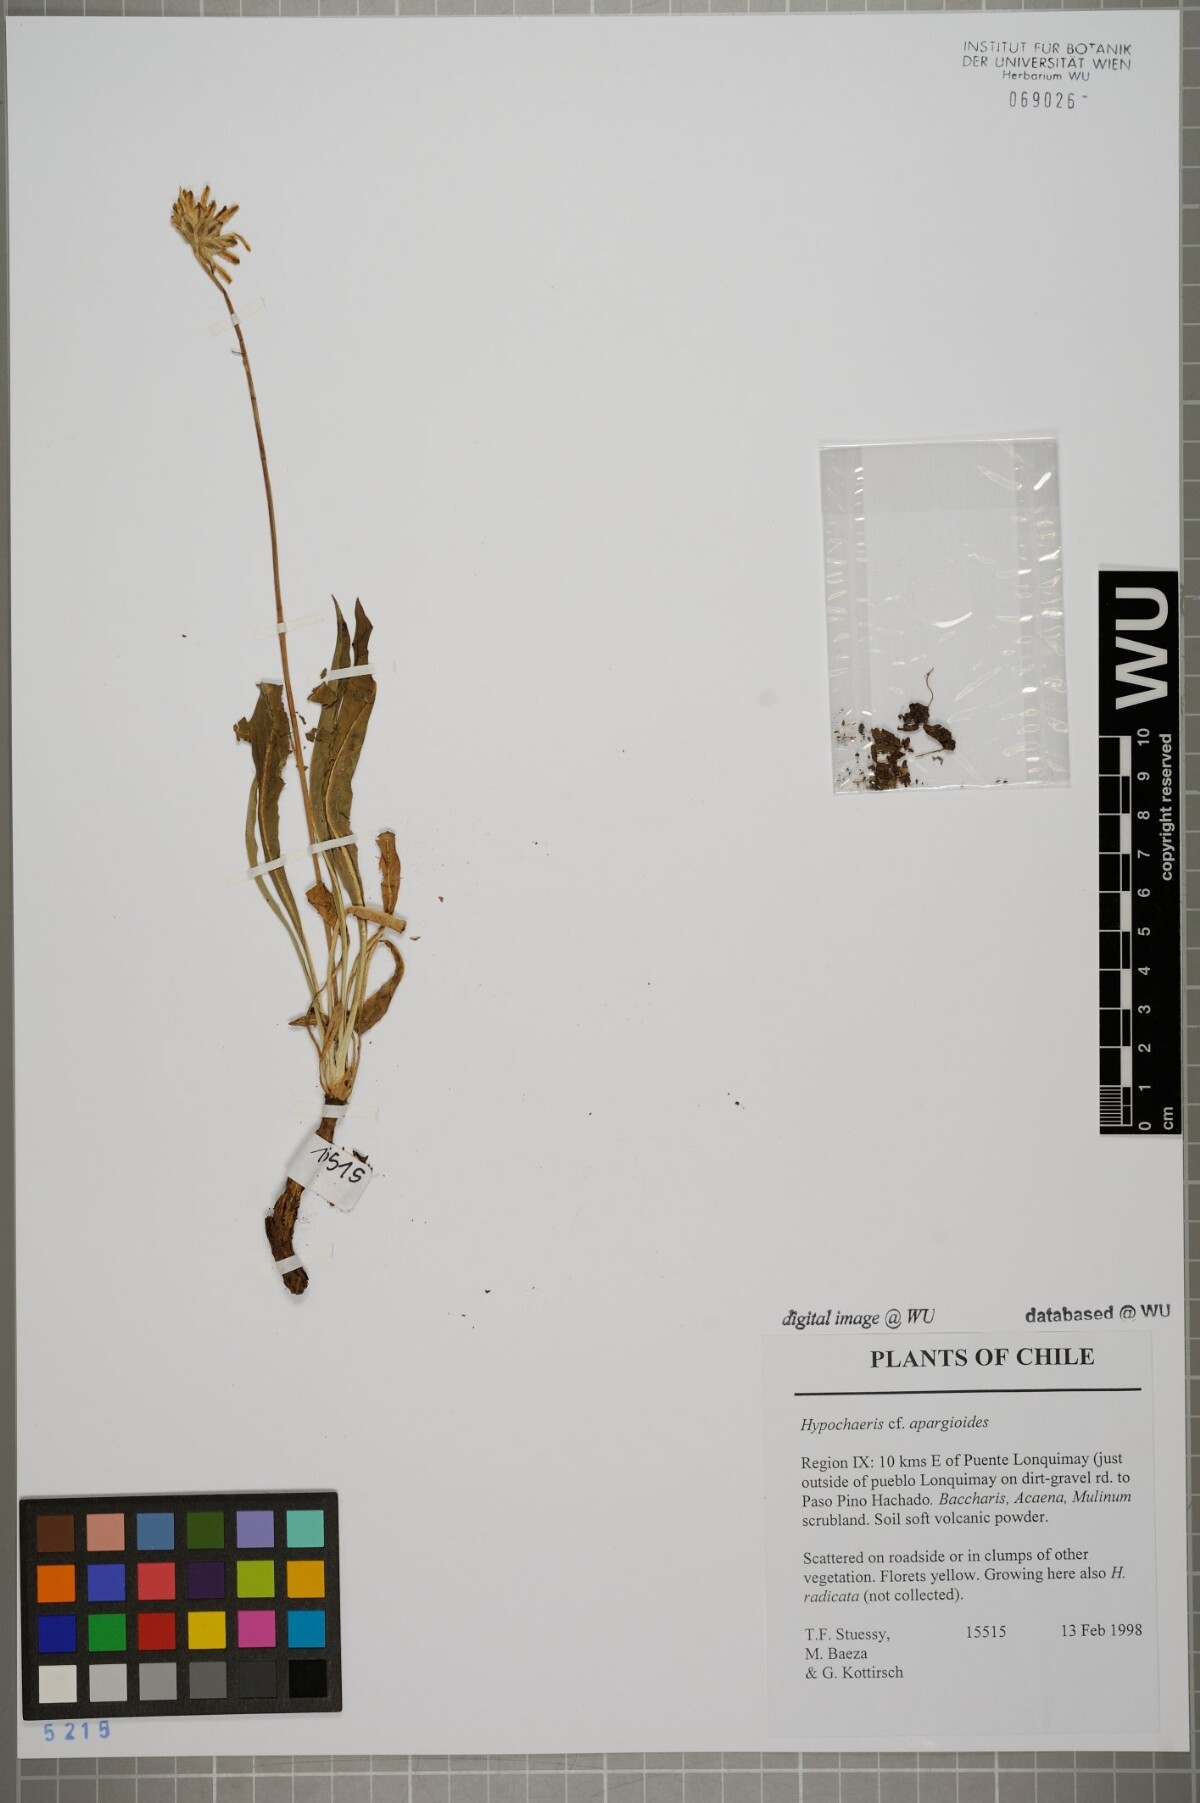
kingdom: Plantae
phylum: Tracheophyta
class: Magnoliopsida
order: Asterales
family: Asteraceae
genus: Hypochaeris
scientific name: Hypochaeris apargioides
